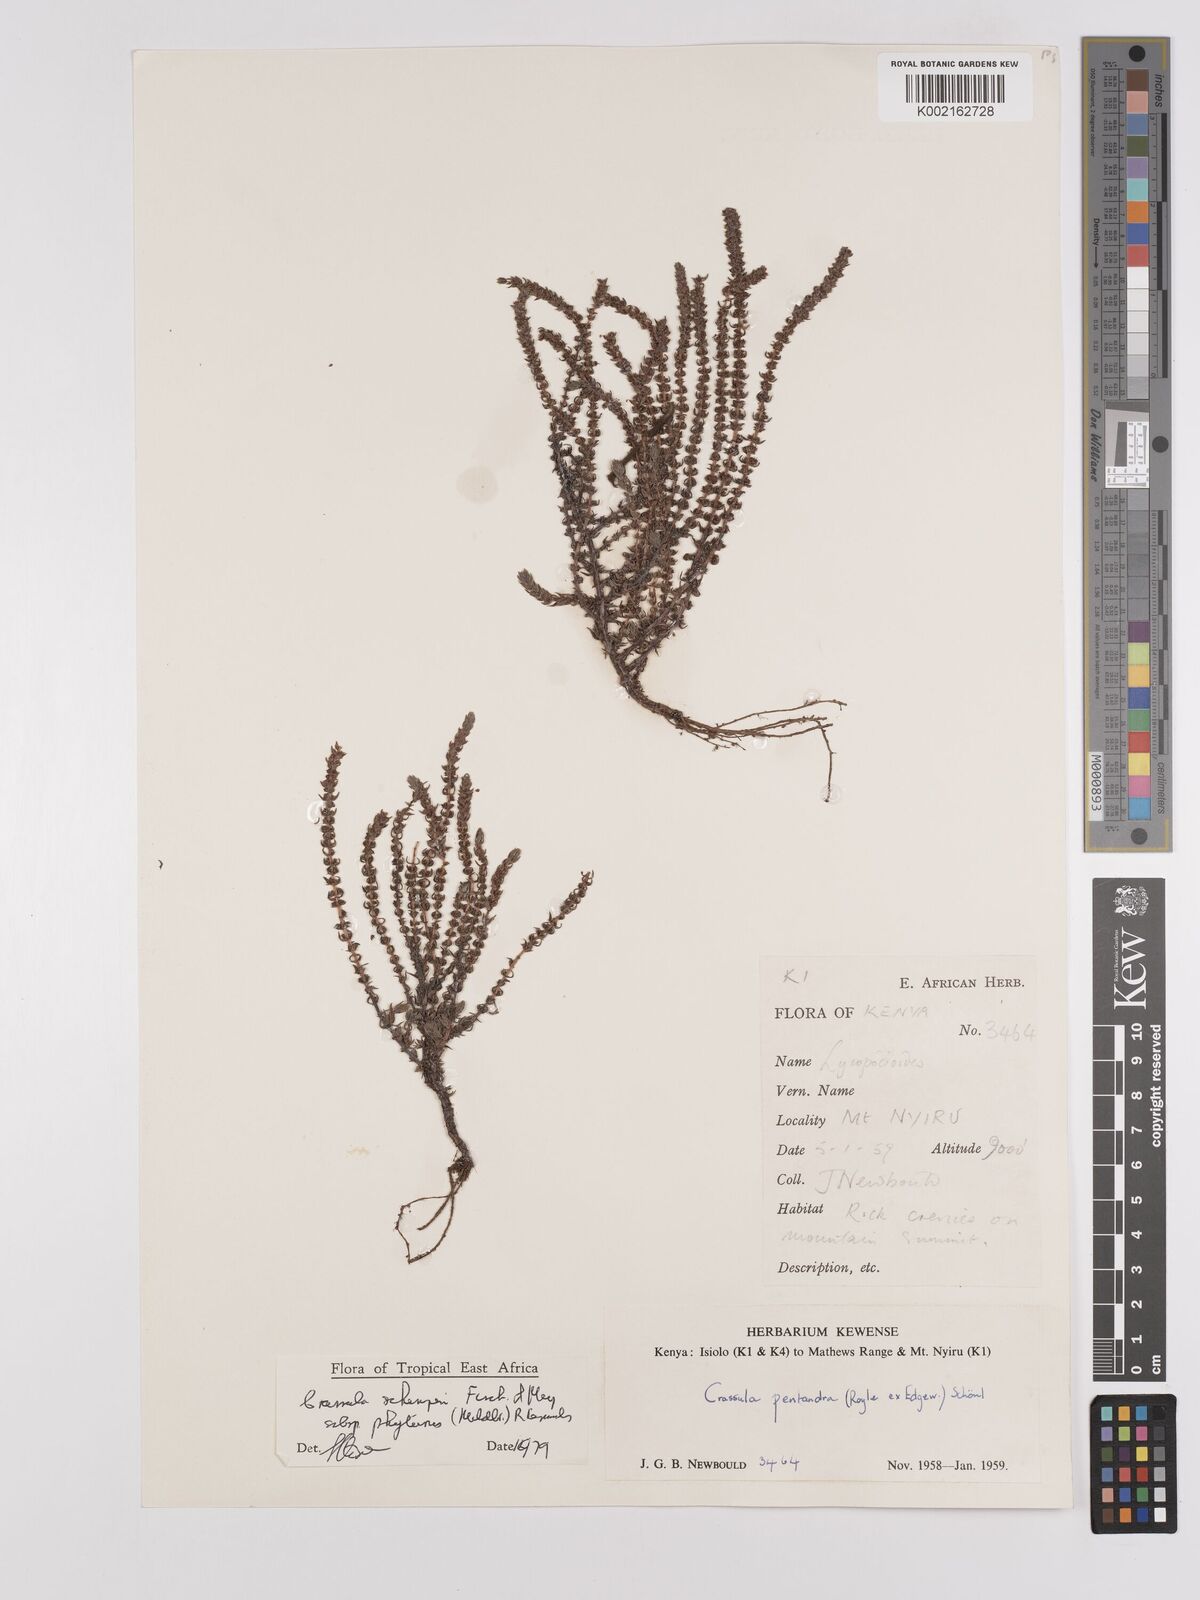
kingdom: Plantae
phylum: Tracheophyta
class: Magnoliopsida
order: Saxifragales
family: Crassulaceae
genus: Crassula
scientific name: Crassula schimperi
